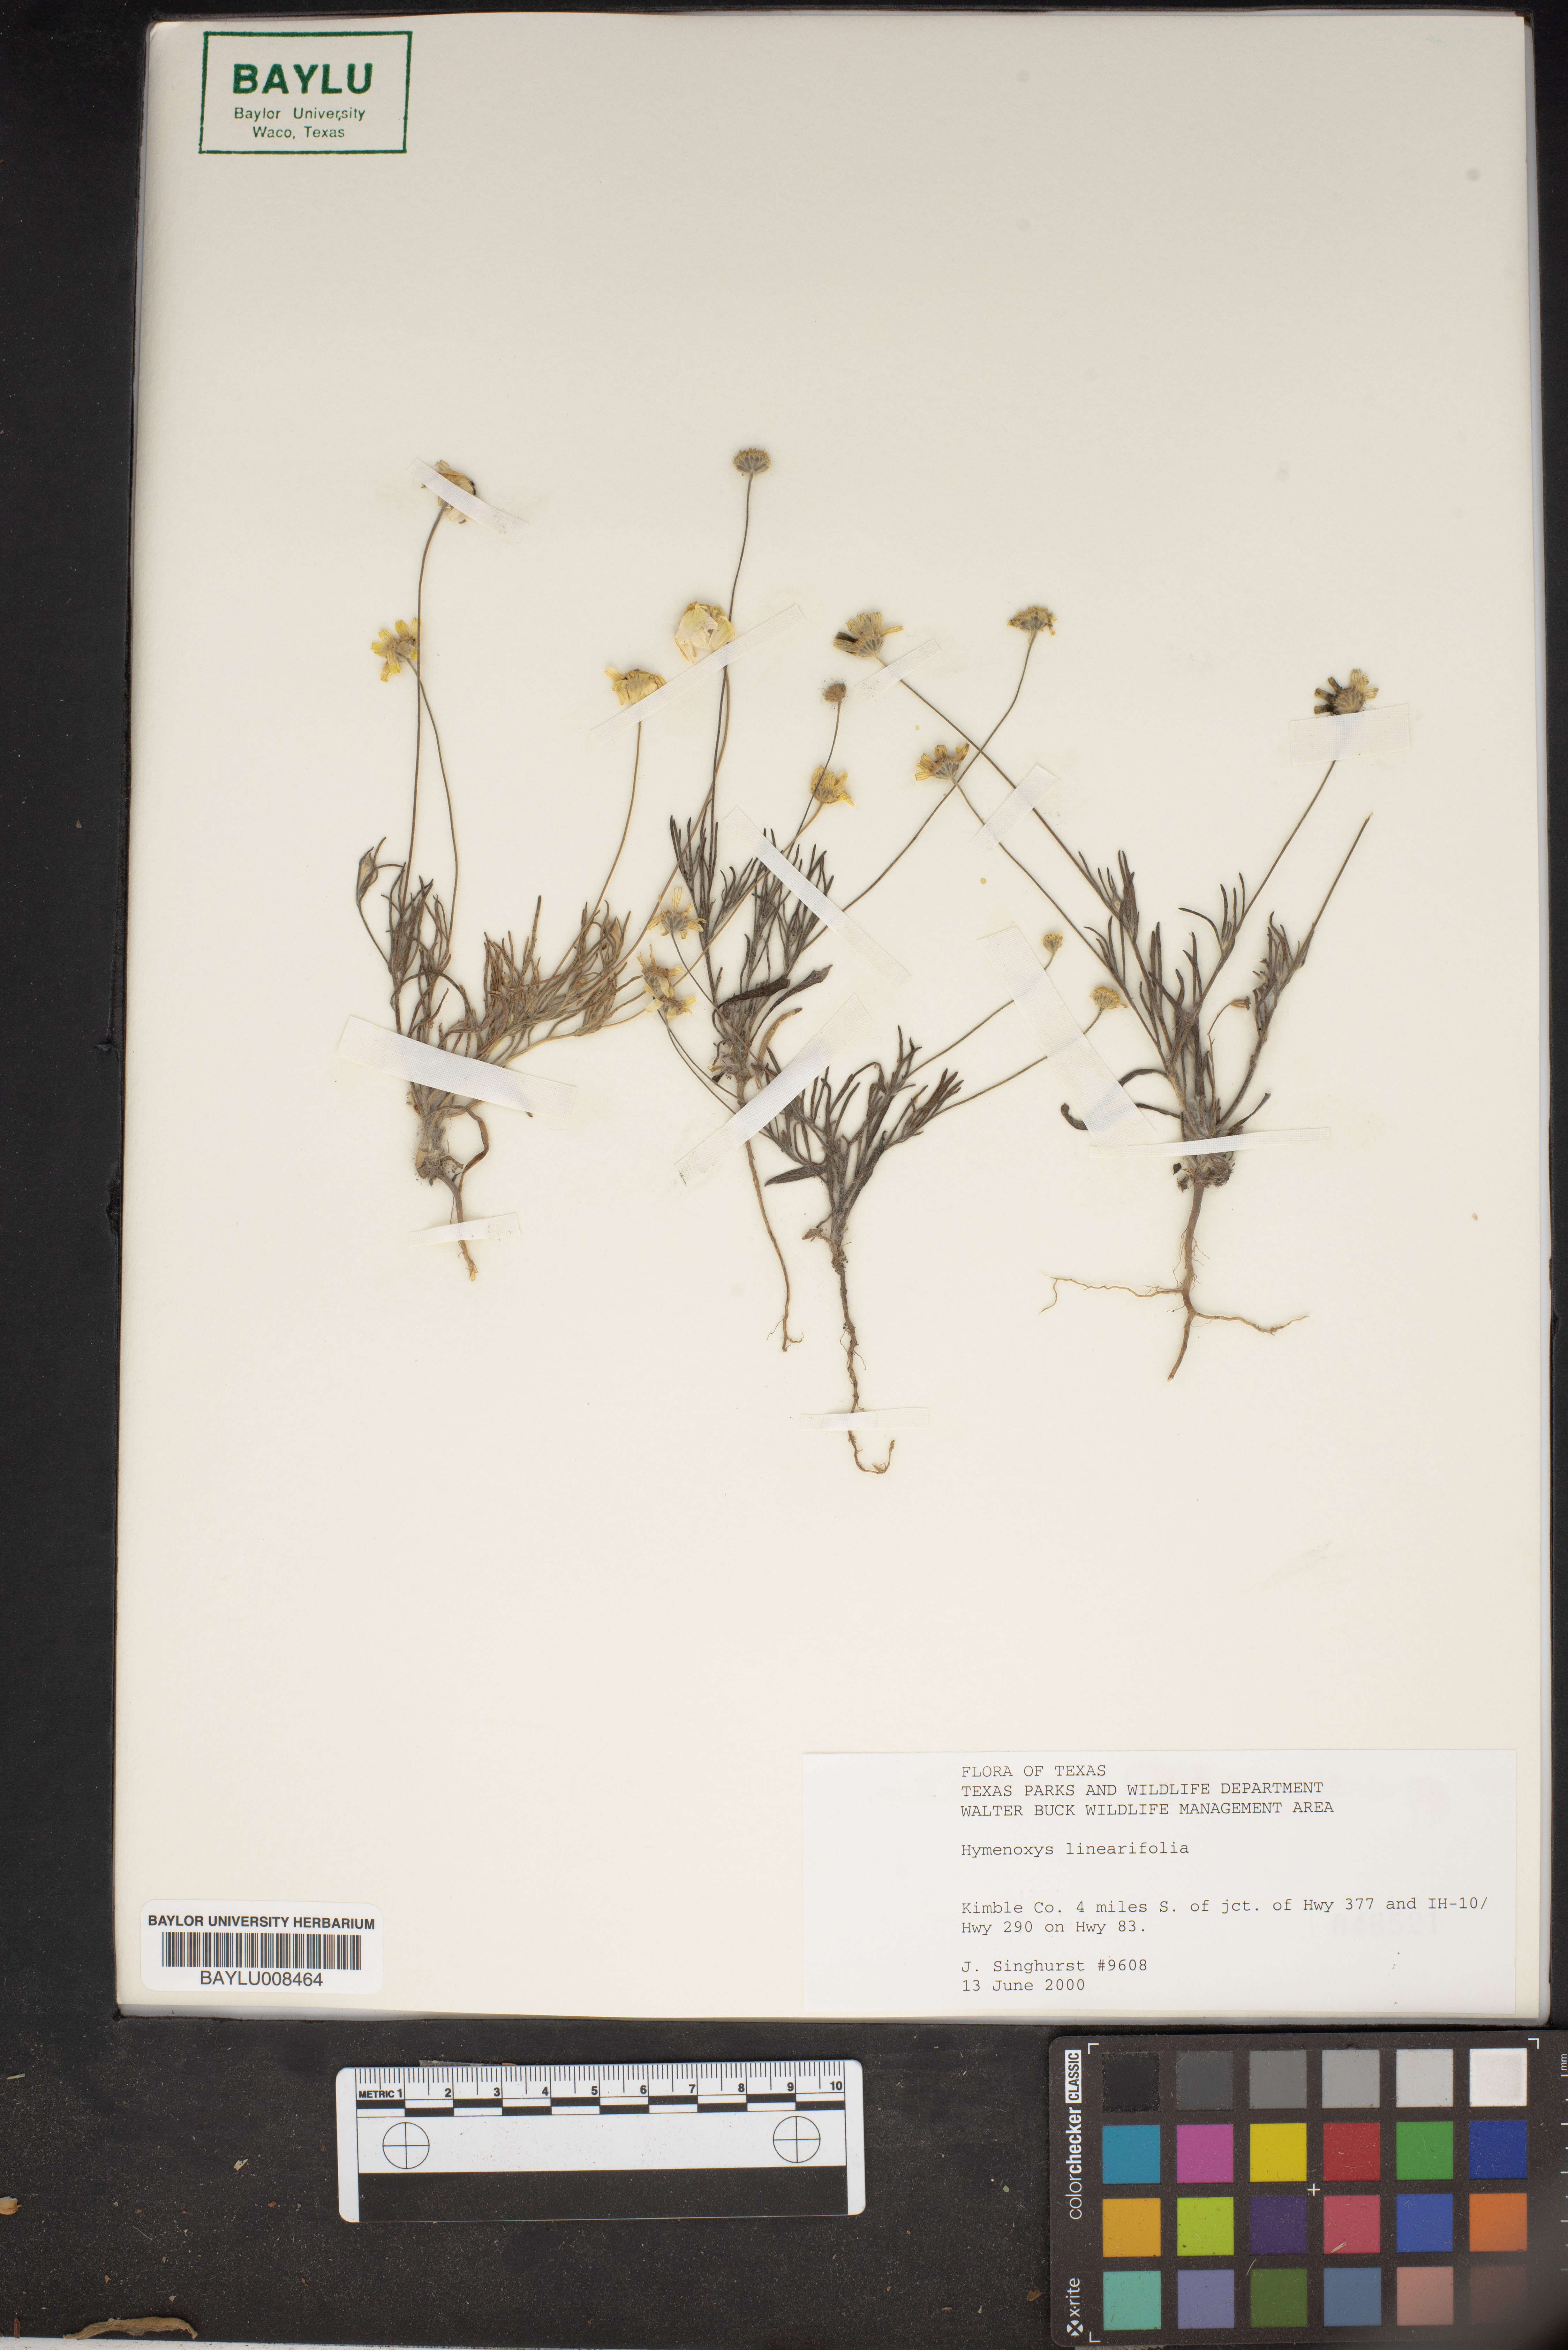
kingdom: Plantae
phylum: Tracheophyta
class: Magnoliopsida
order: Asterales
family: Asteraceae
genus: Tetraneuris
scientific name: Tetraneuris linearifolia
